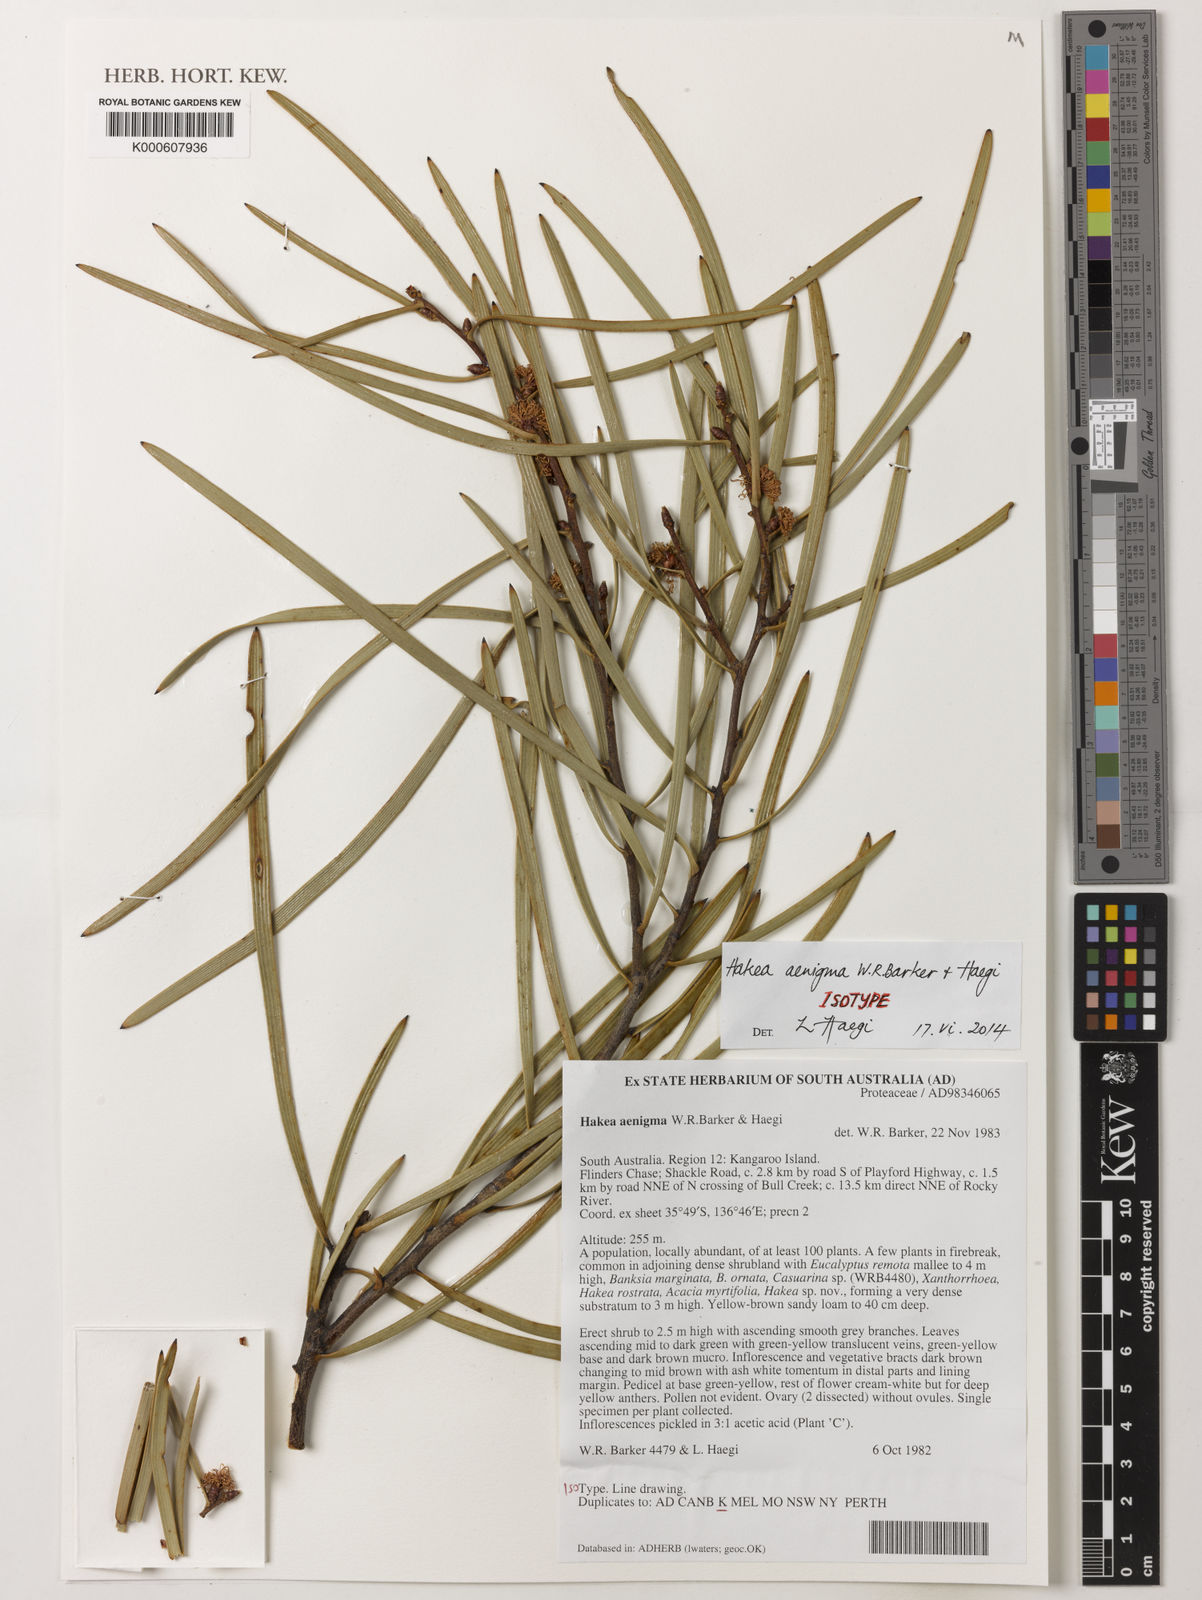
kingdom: Plantae
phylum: Tracheophyta
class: Magnoliopsida
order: Proteales
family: Proteaceae
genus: Hakea
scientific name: Hakea aenigma
